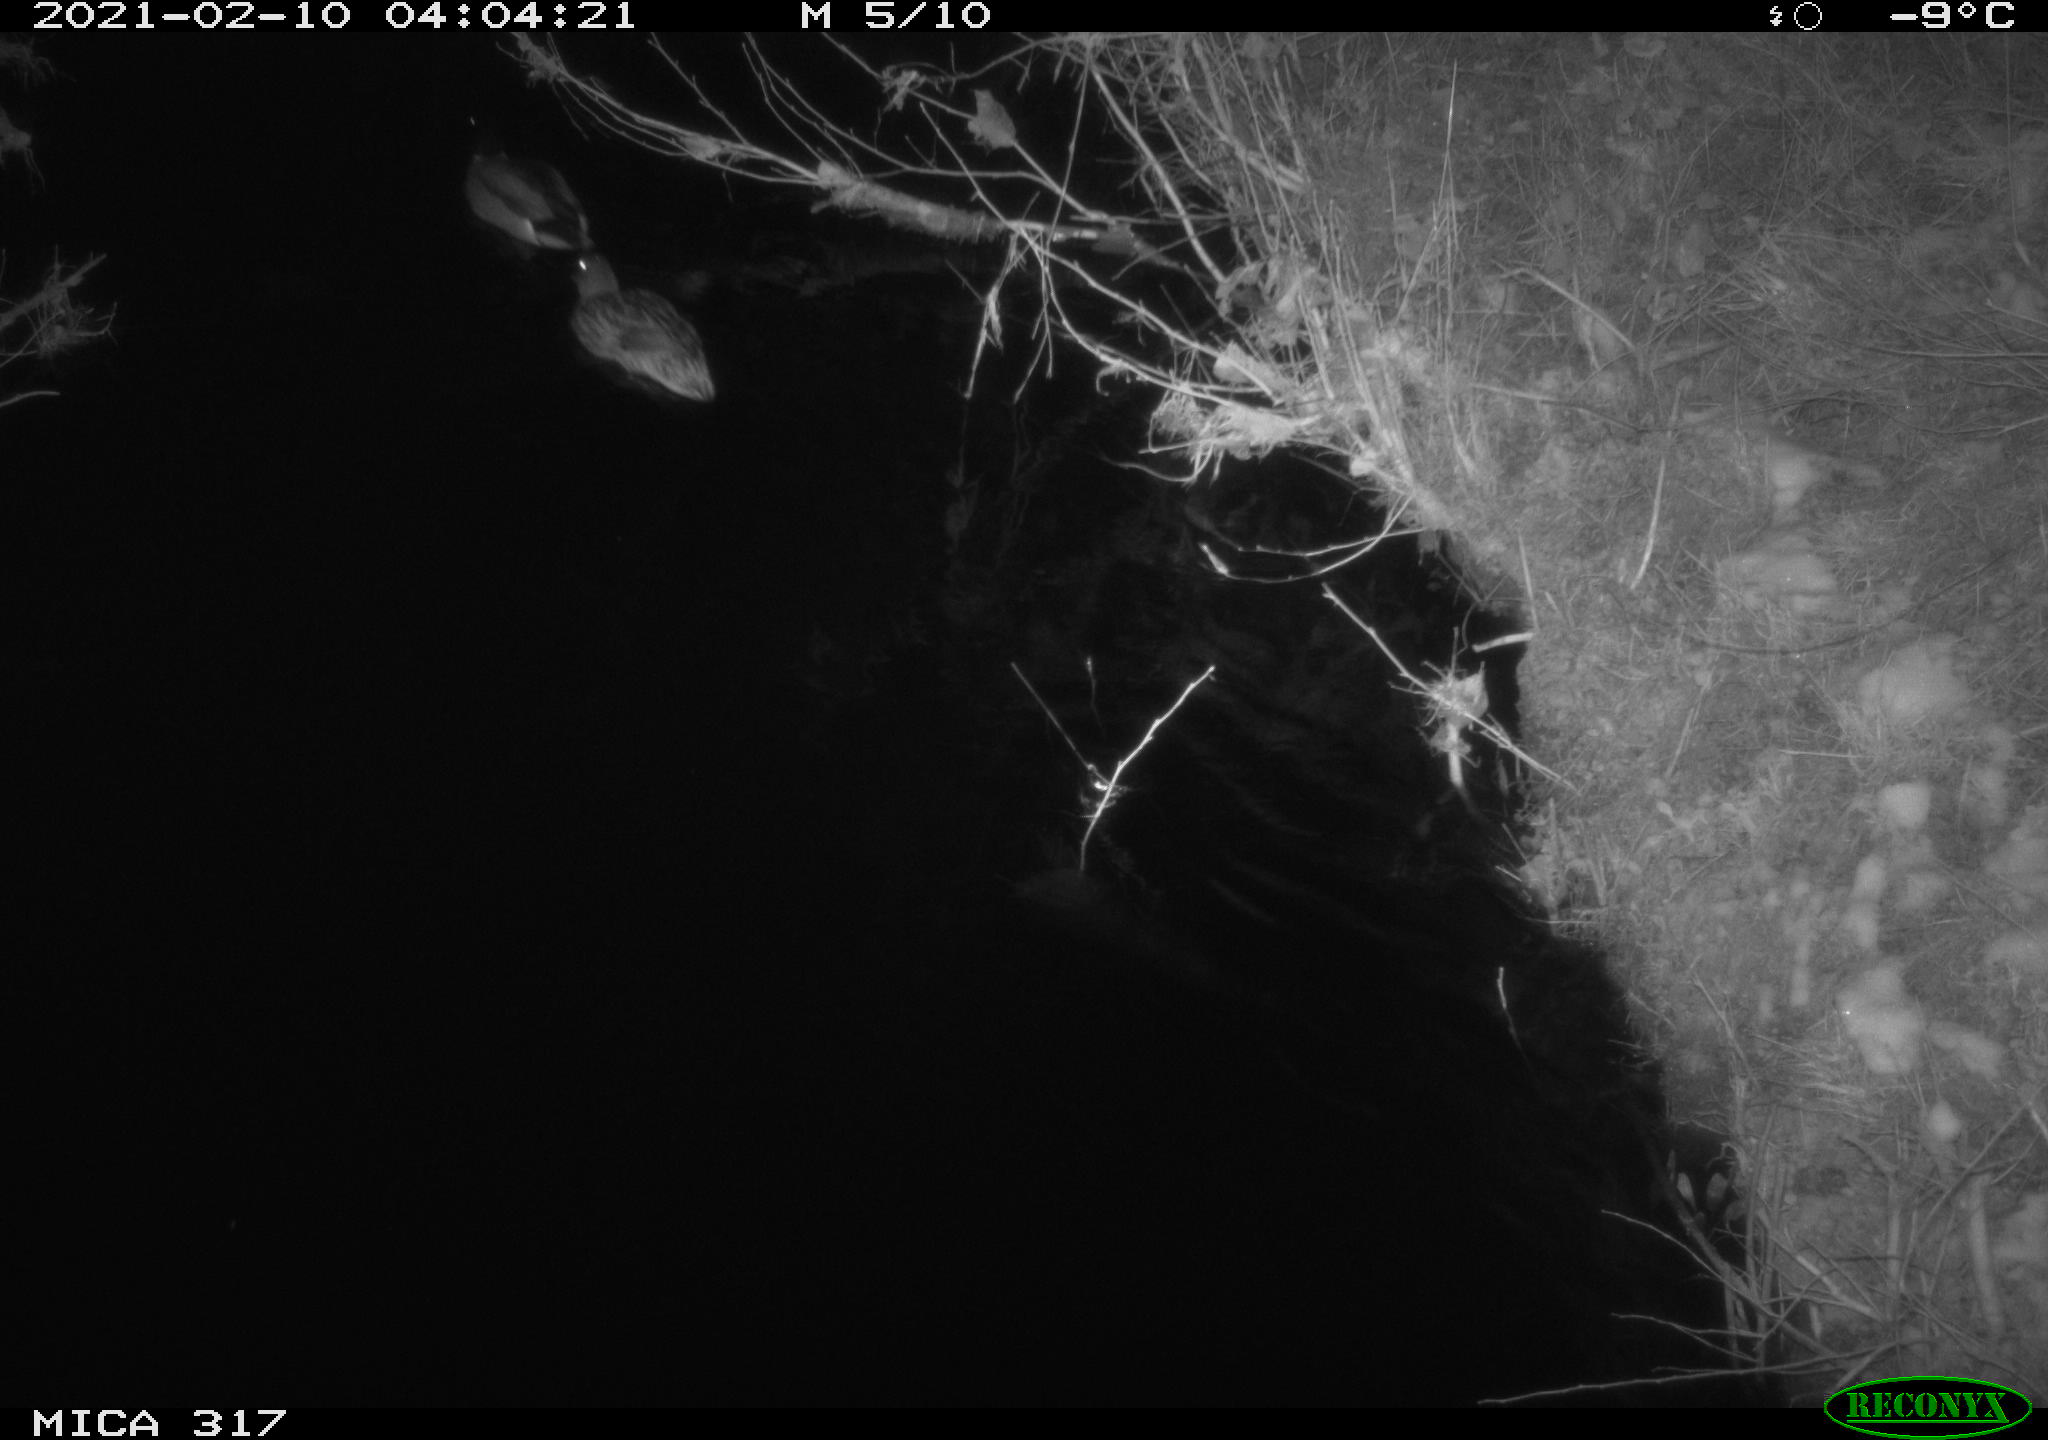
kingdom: Animalia
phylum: Chordata
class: Aves
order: Anseriformes
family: Anatidae
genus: Anas
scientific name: Anas platyrhynchos
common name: Mallard
